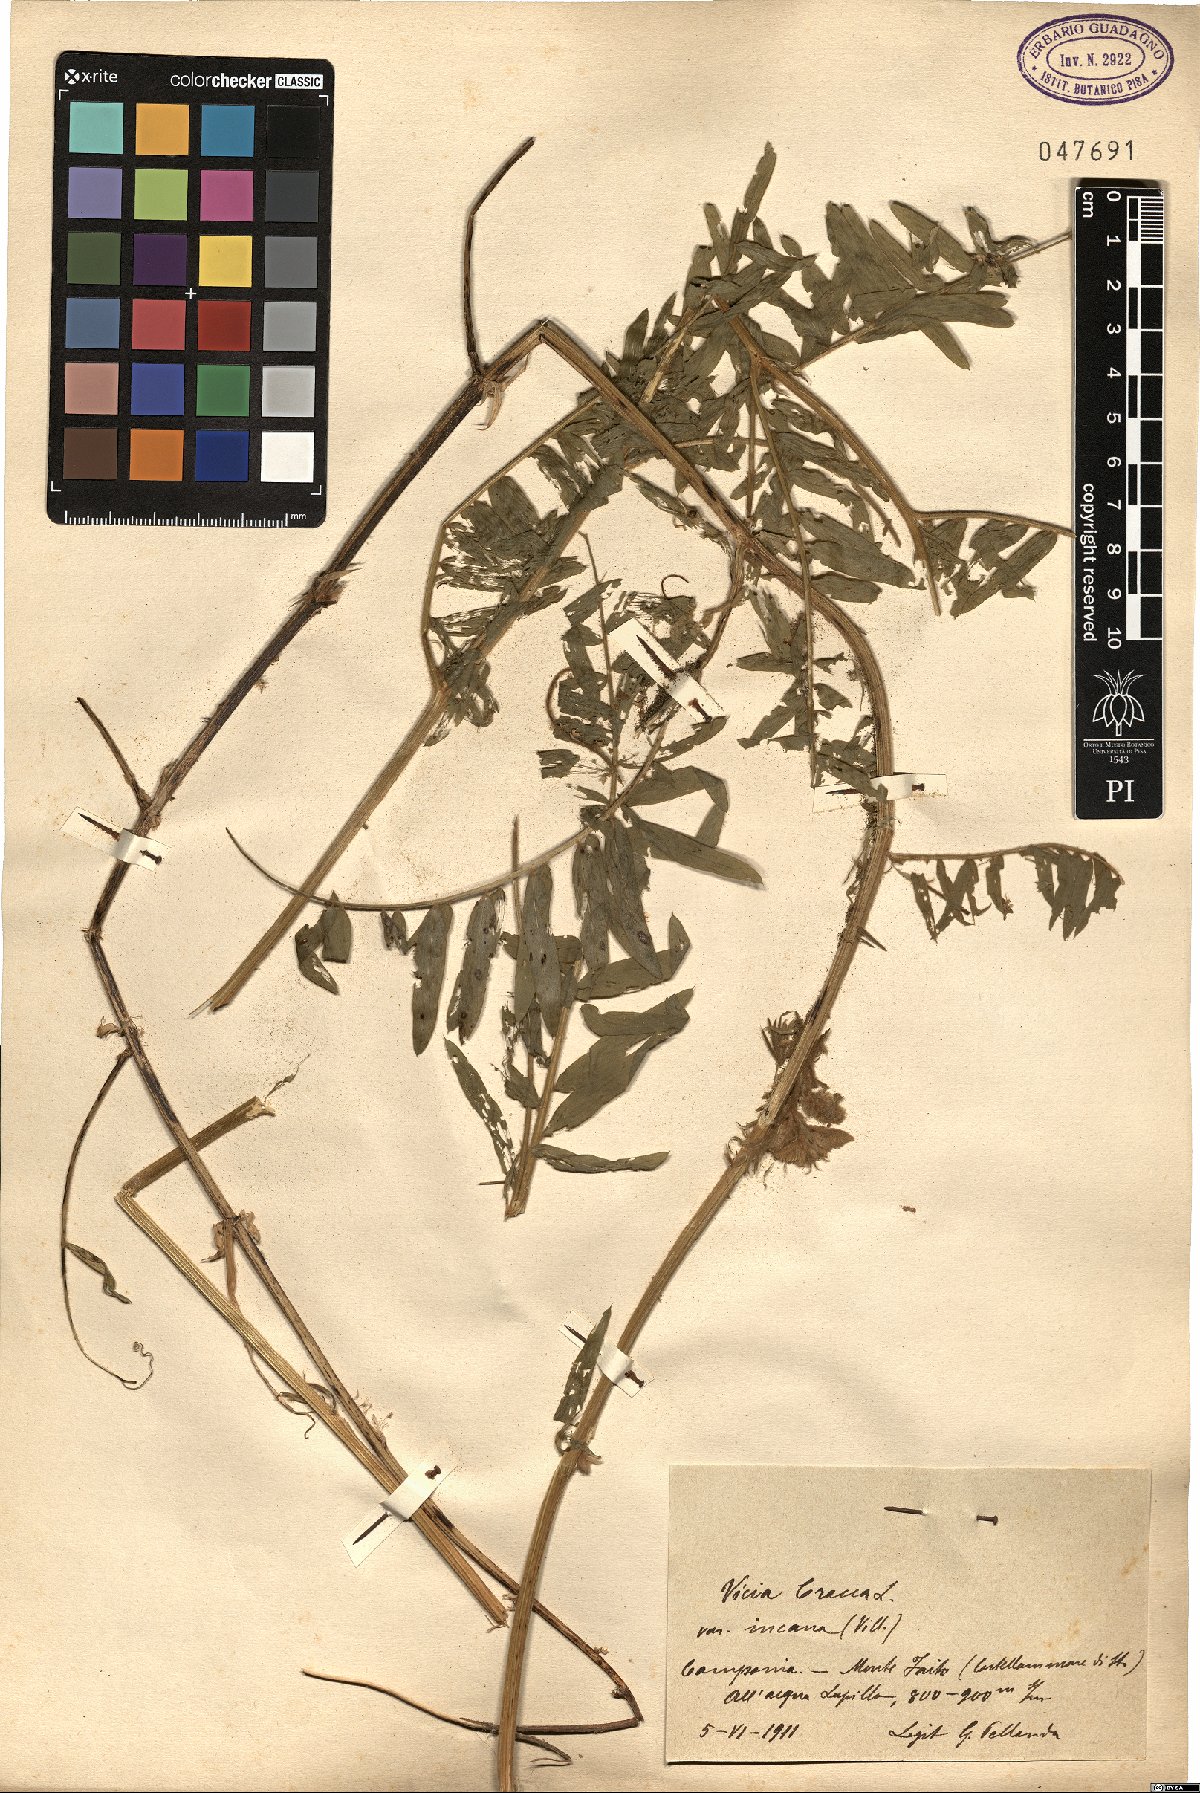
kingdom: Plantae
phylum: Tracheophyta
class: Magnoliopsida
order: Fabales
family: Fabaceae
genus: Vicia
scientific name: Vicia cracca
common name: Bird vetch
